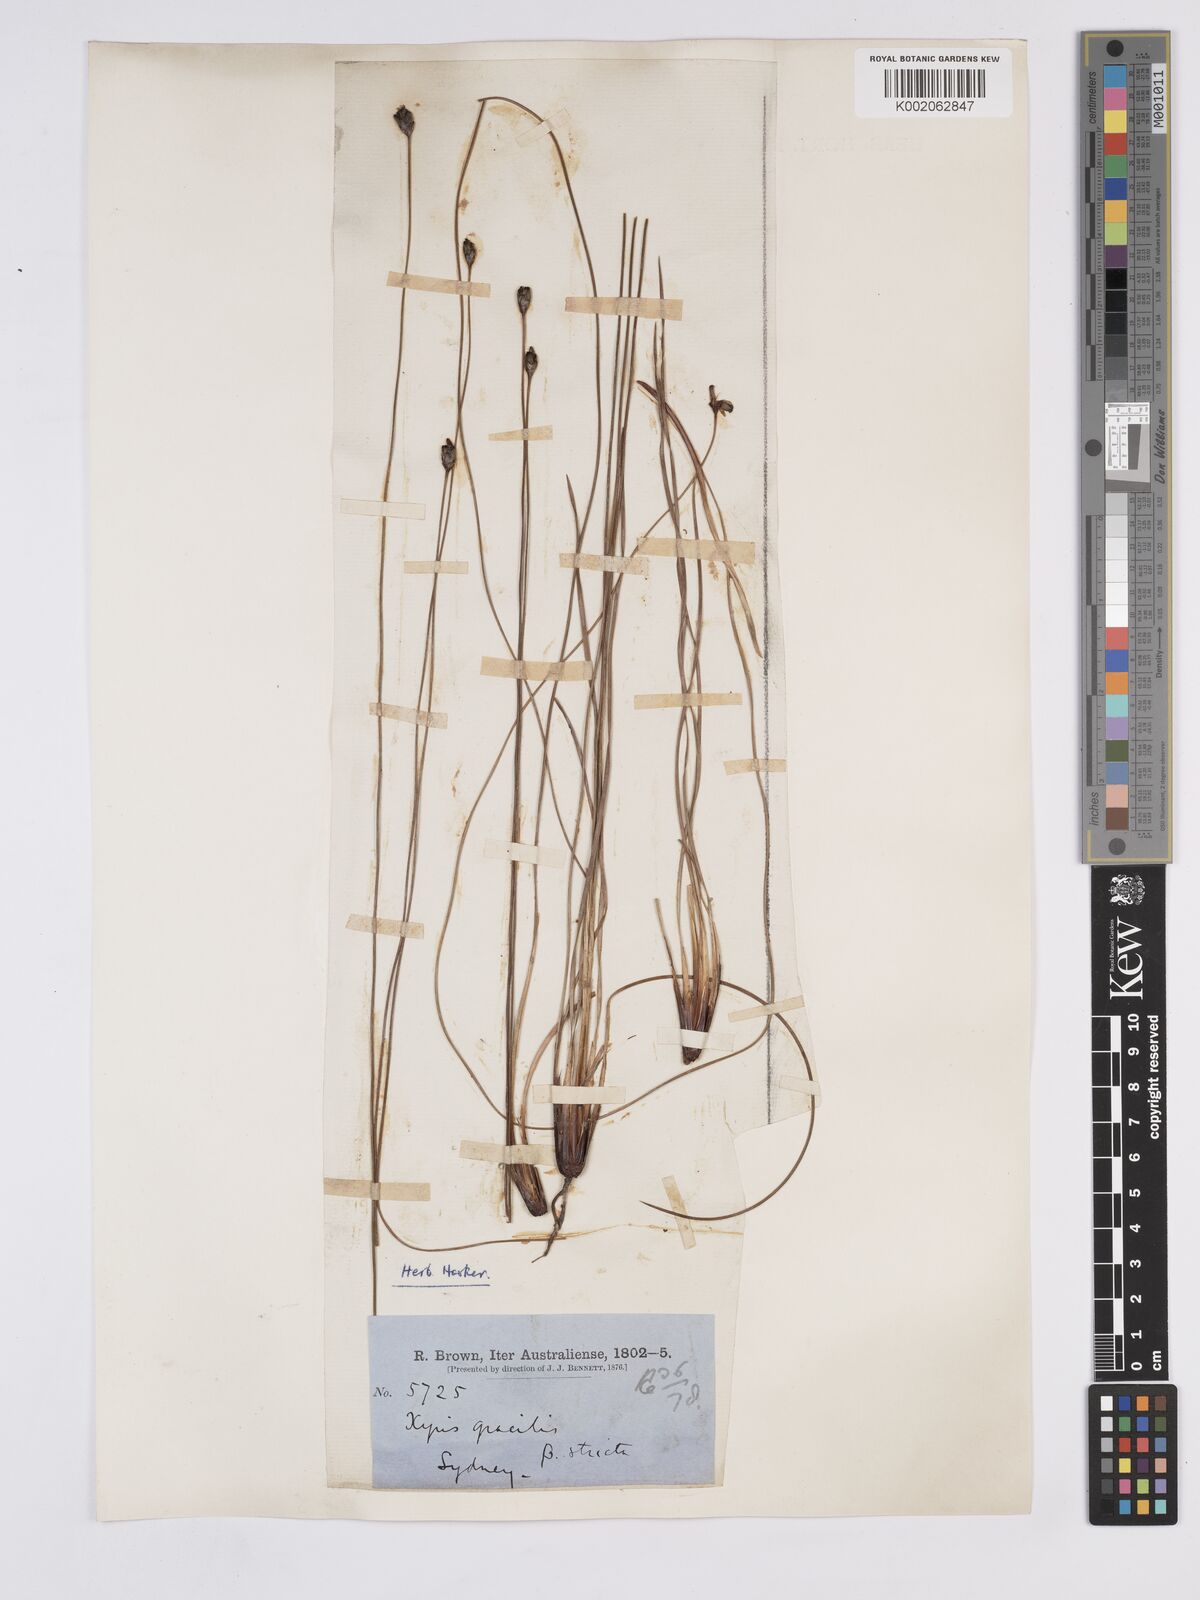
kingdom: Plantae
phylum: Tracheophyta
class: Liliopsida
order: Poales
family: Xyridaceae
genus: Xyris
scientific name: Xyris gracilis
